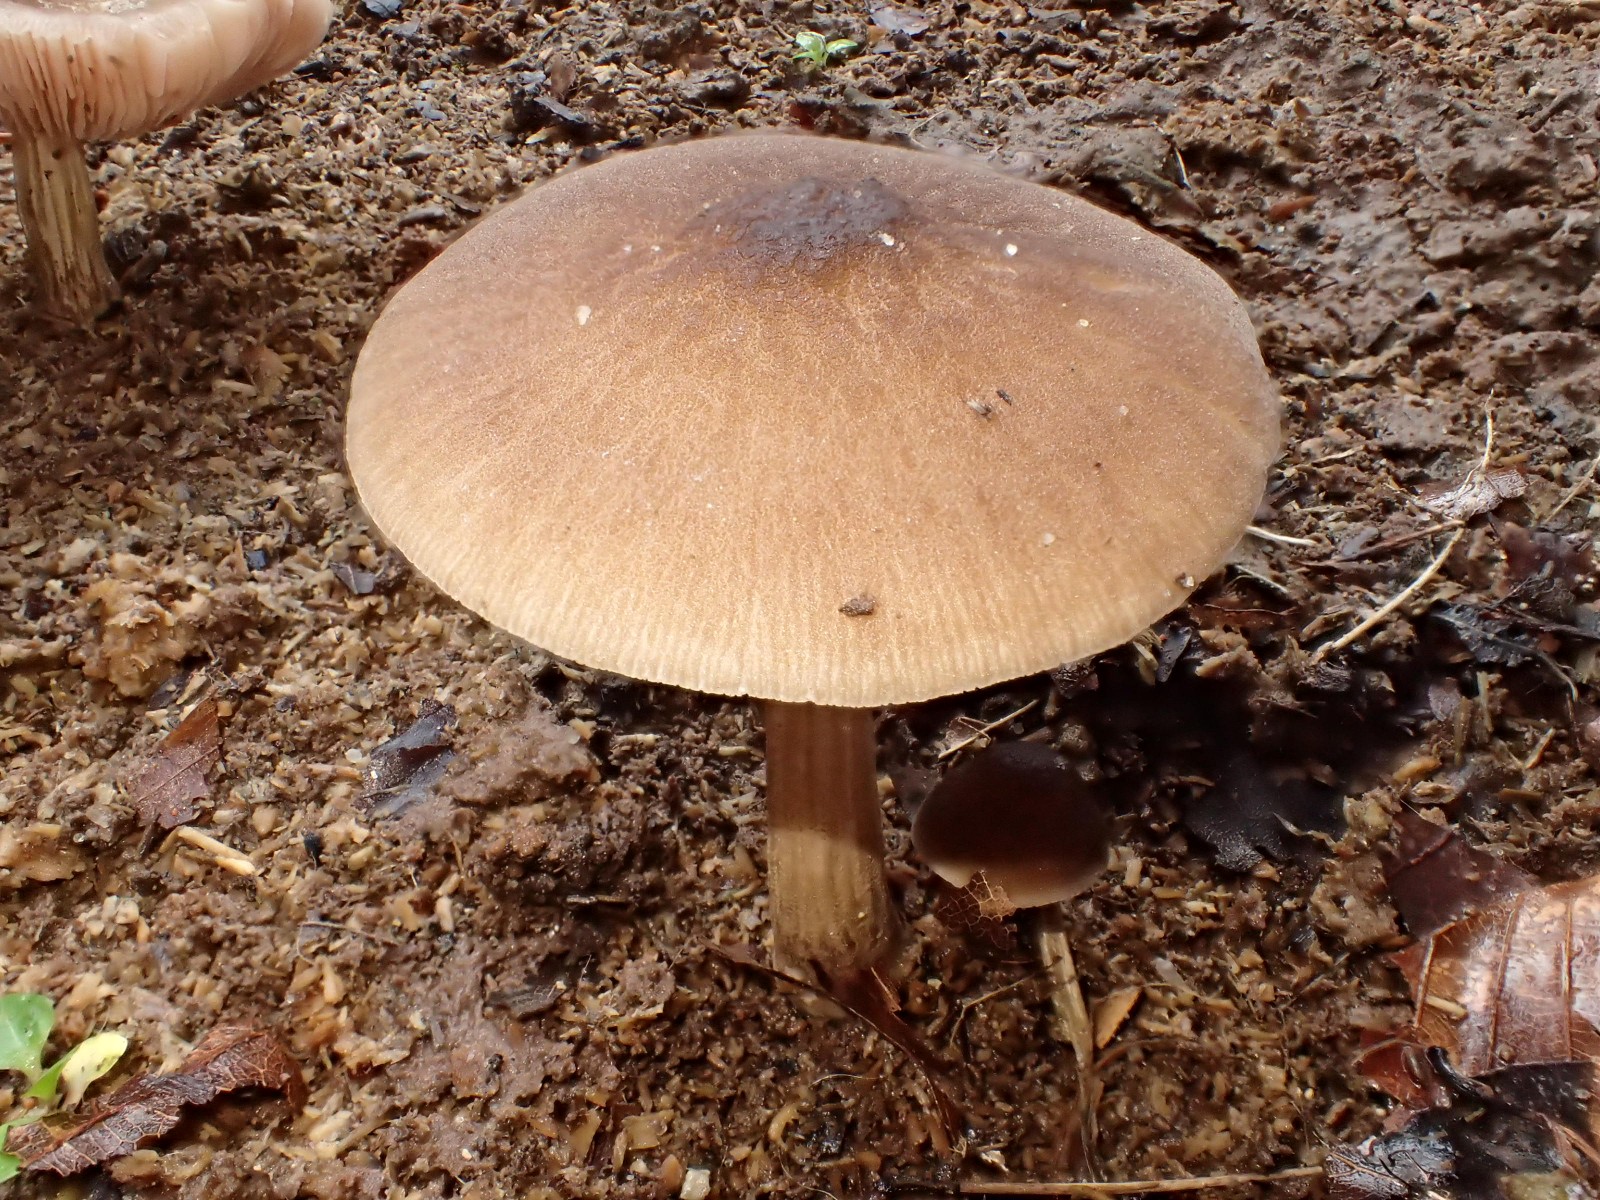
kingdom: Fungi
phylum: Basidiomycota
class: Agaricomycetes
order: Agaricales
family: Pluteaceae
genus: Pluteus
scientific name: Pluteus
